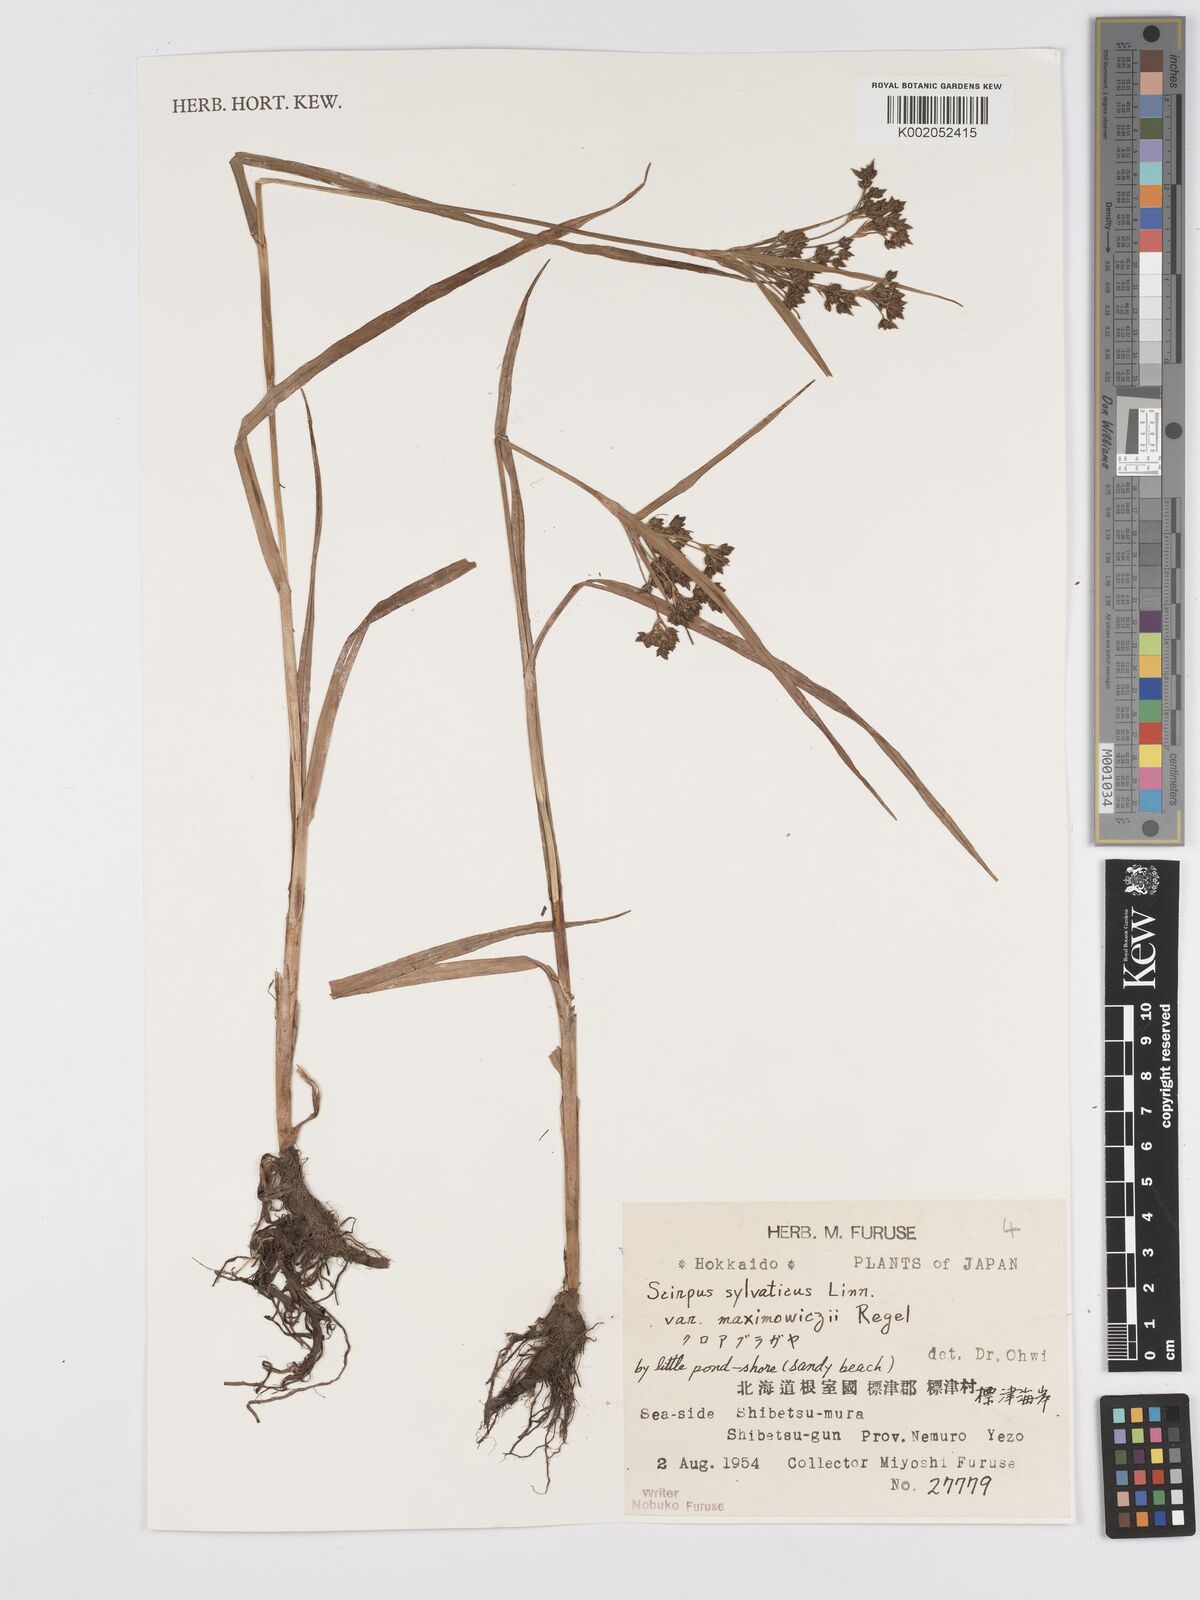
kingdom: Plantae
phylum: Tracheophyta
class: Liliopsida
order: Poales
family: Cyperaceae
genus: Scirpus
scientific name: Scirpus sylvaticus
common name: Wood club-rush
